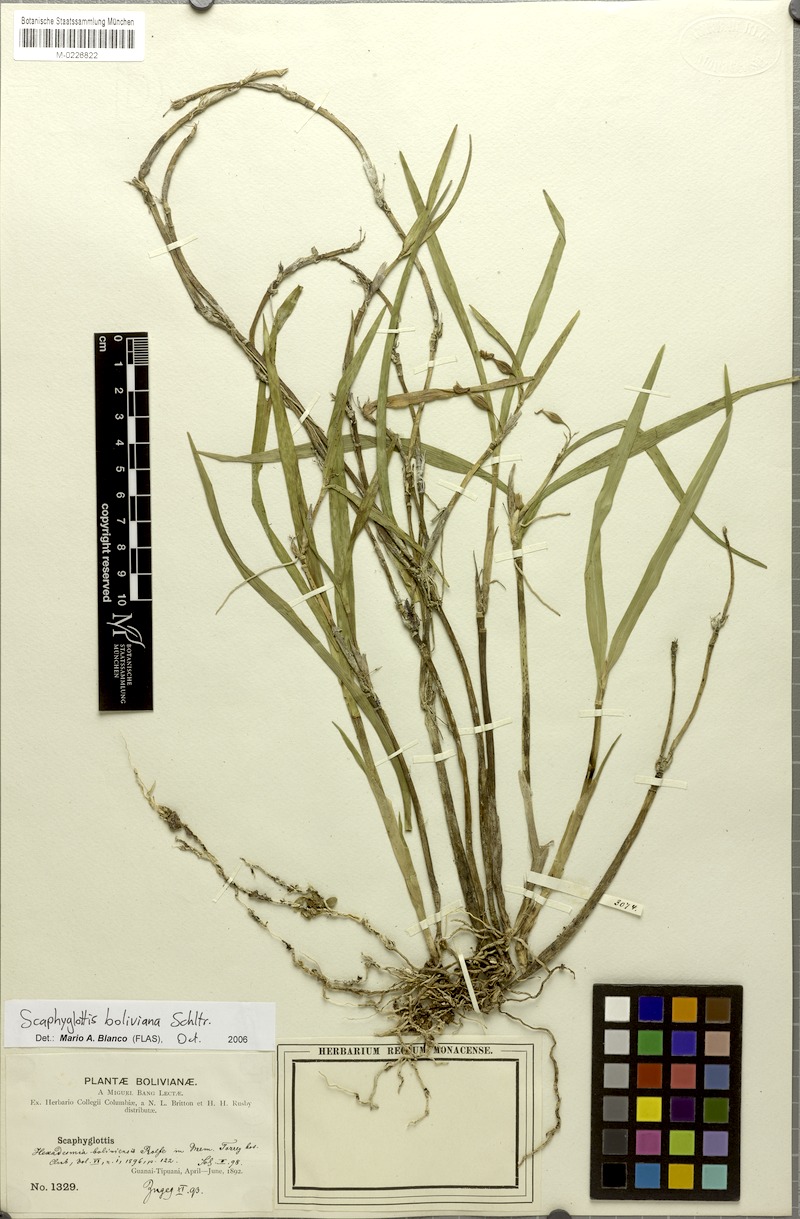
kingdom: Plantae
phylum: Tracheophyta
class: Liliopsida
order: Asparagales
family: Orchidaceae
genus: Scaphyglottis
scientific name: Scaphyglottis boliviensis
